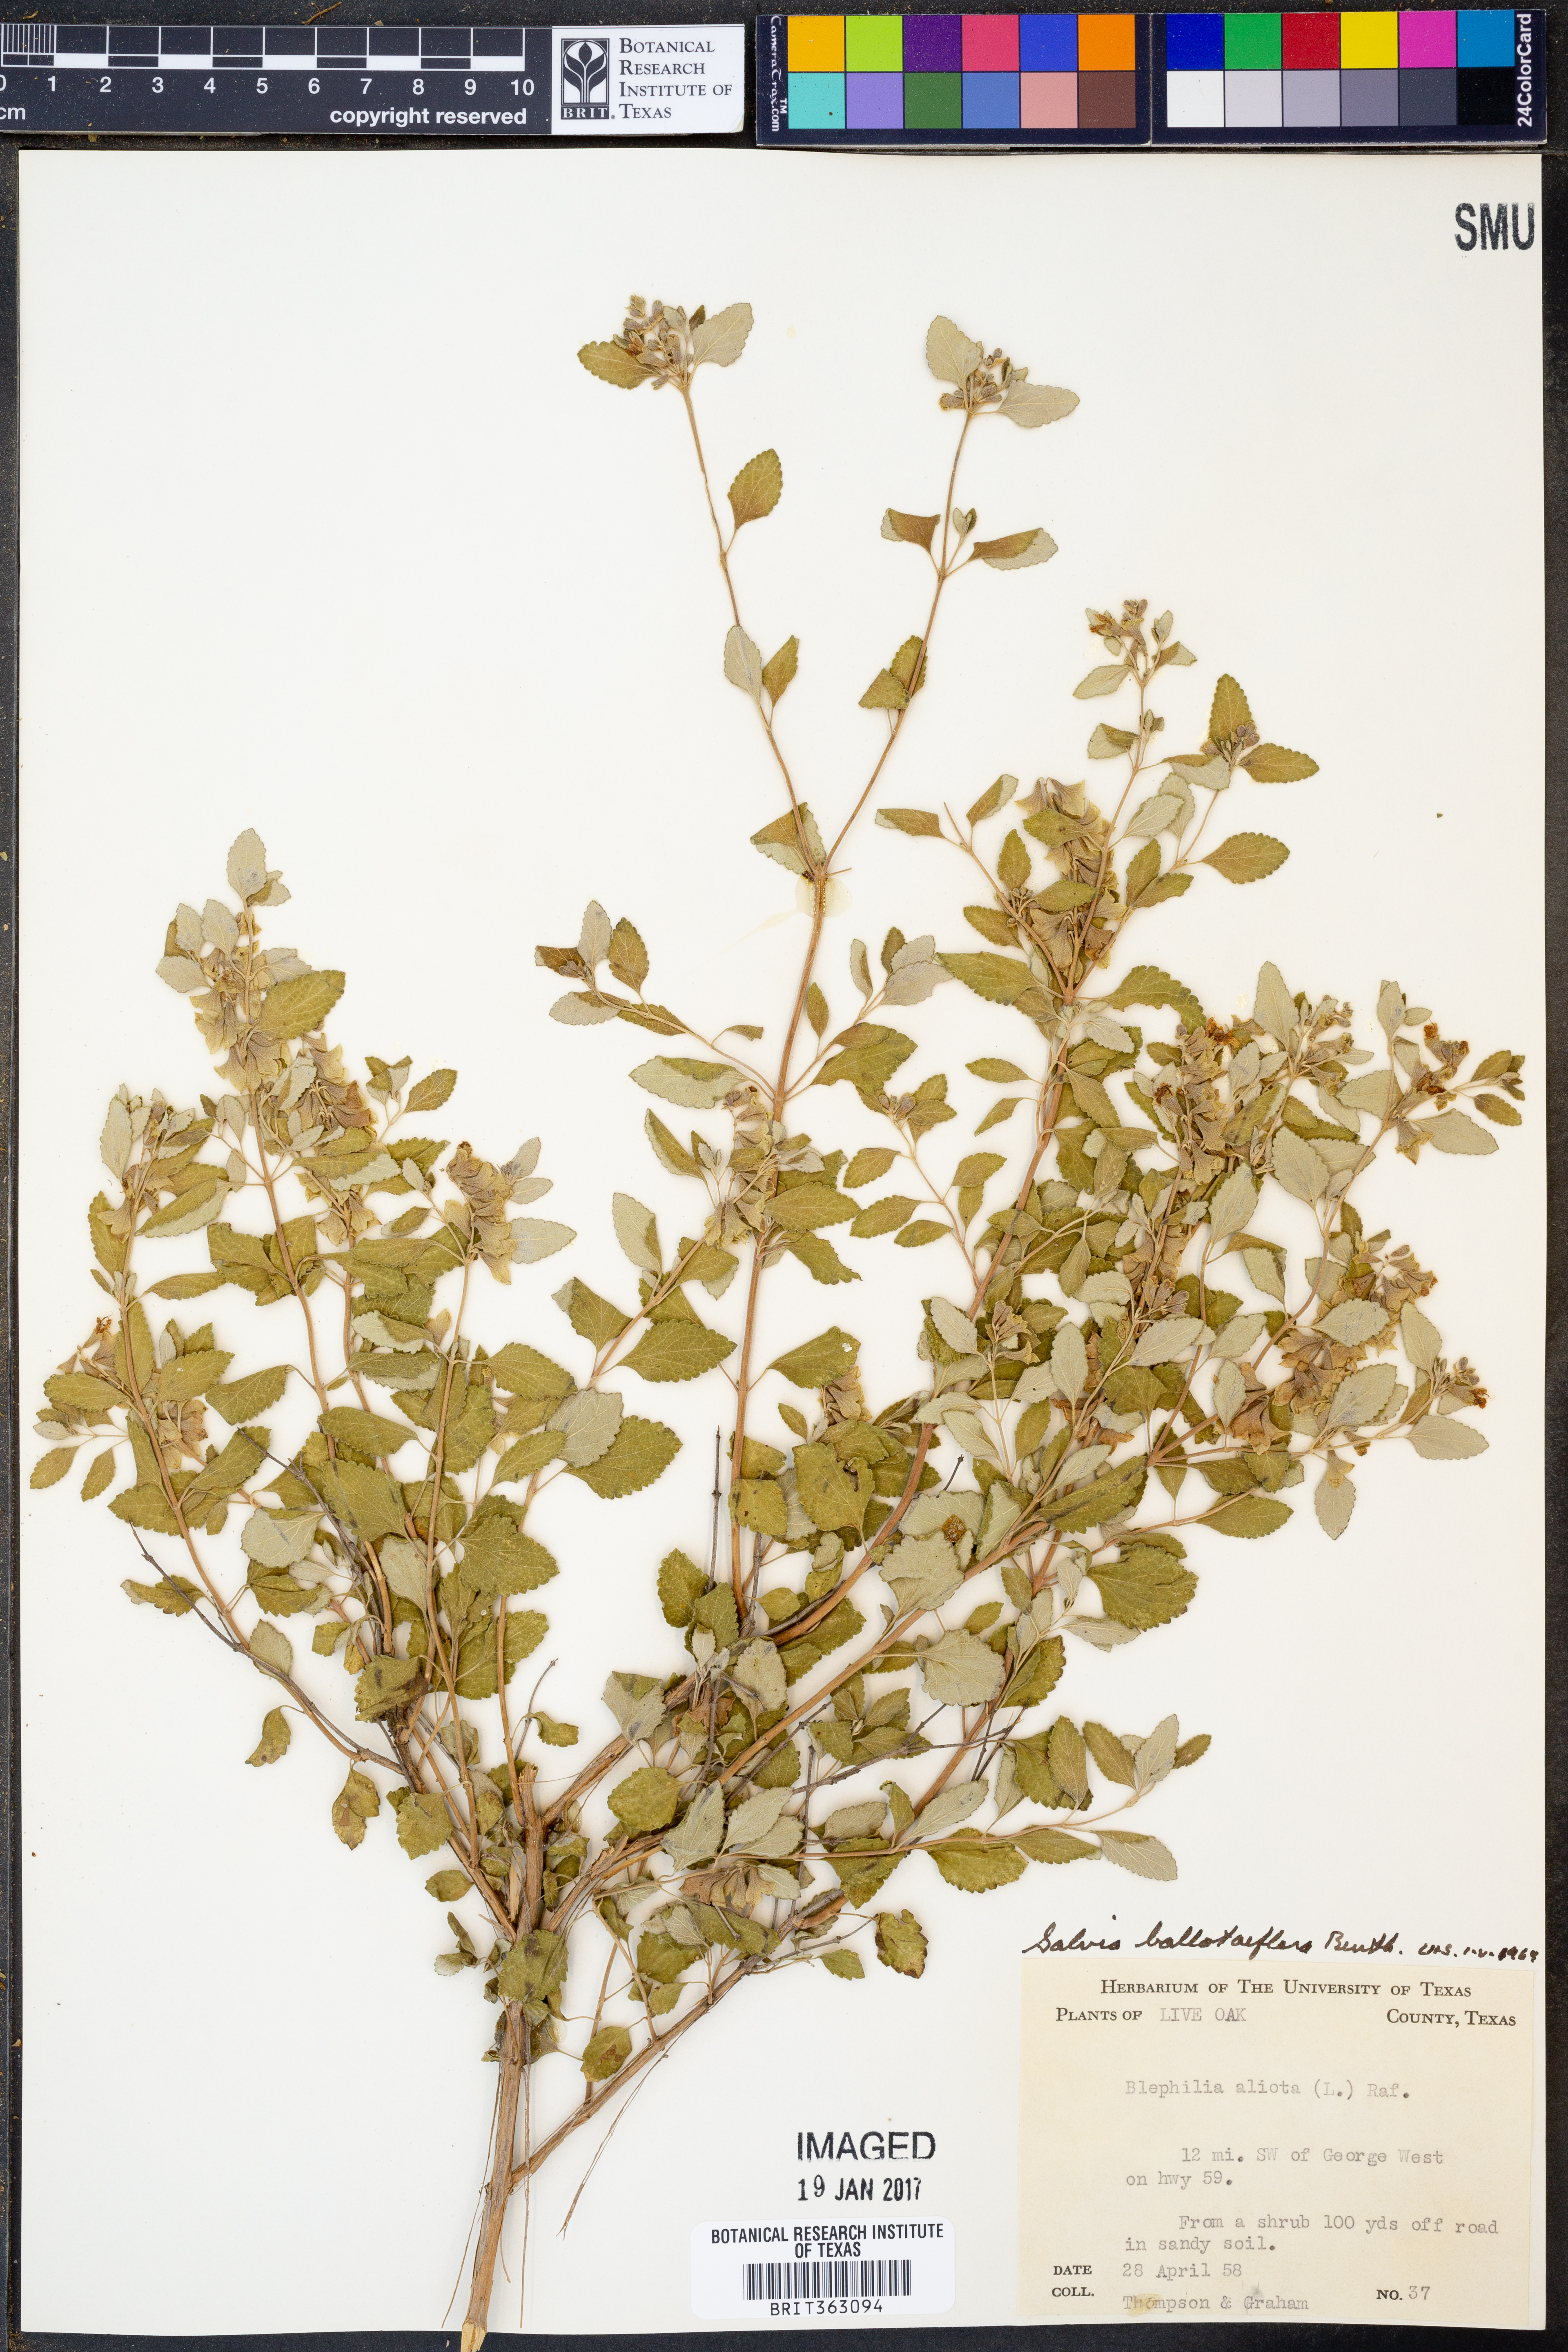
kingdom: Plantae
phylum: Tracheophyta
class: Magnoliopsida
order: Lamiales
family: Lamiaceae
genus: Salvia
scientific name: Salvia ballotiflora
